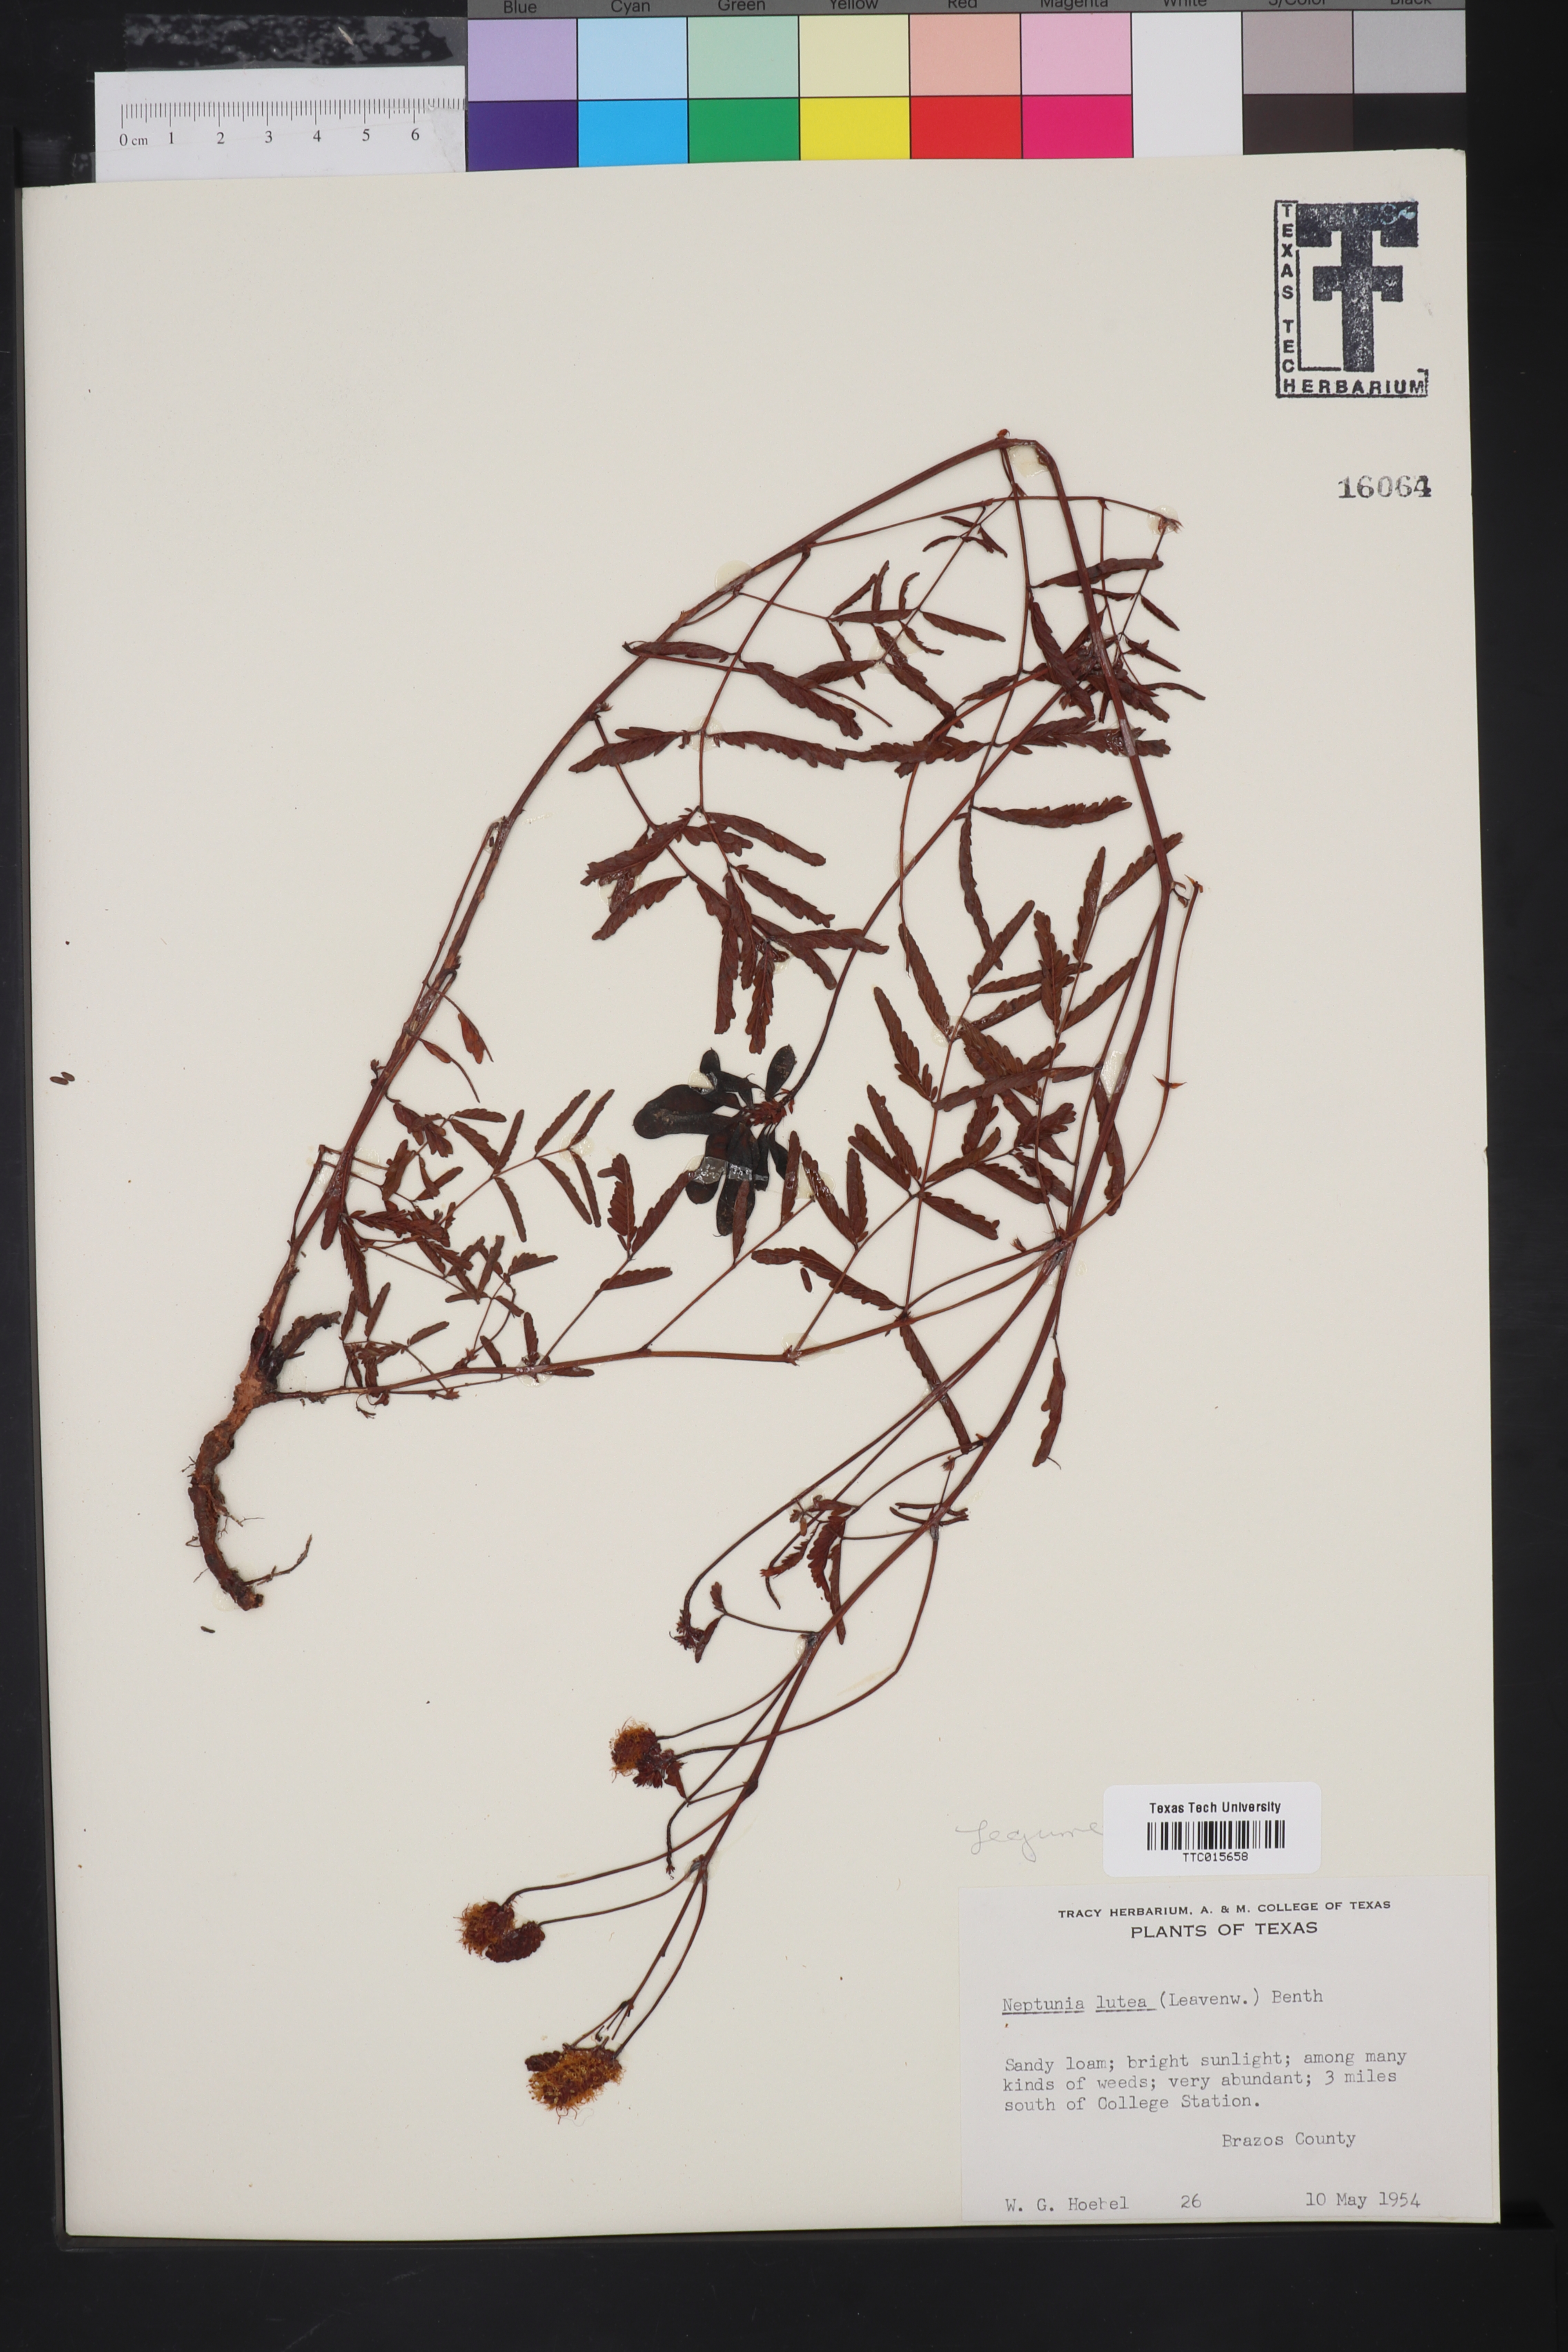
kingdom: Plantae
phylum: Tracheophyta
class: Magnoliopsida
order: Fabales
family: Fabaceae
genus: Neptunia
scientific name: Neptunia lutea
